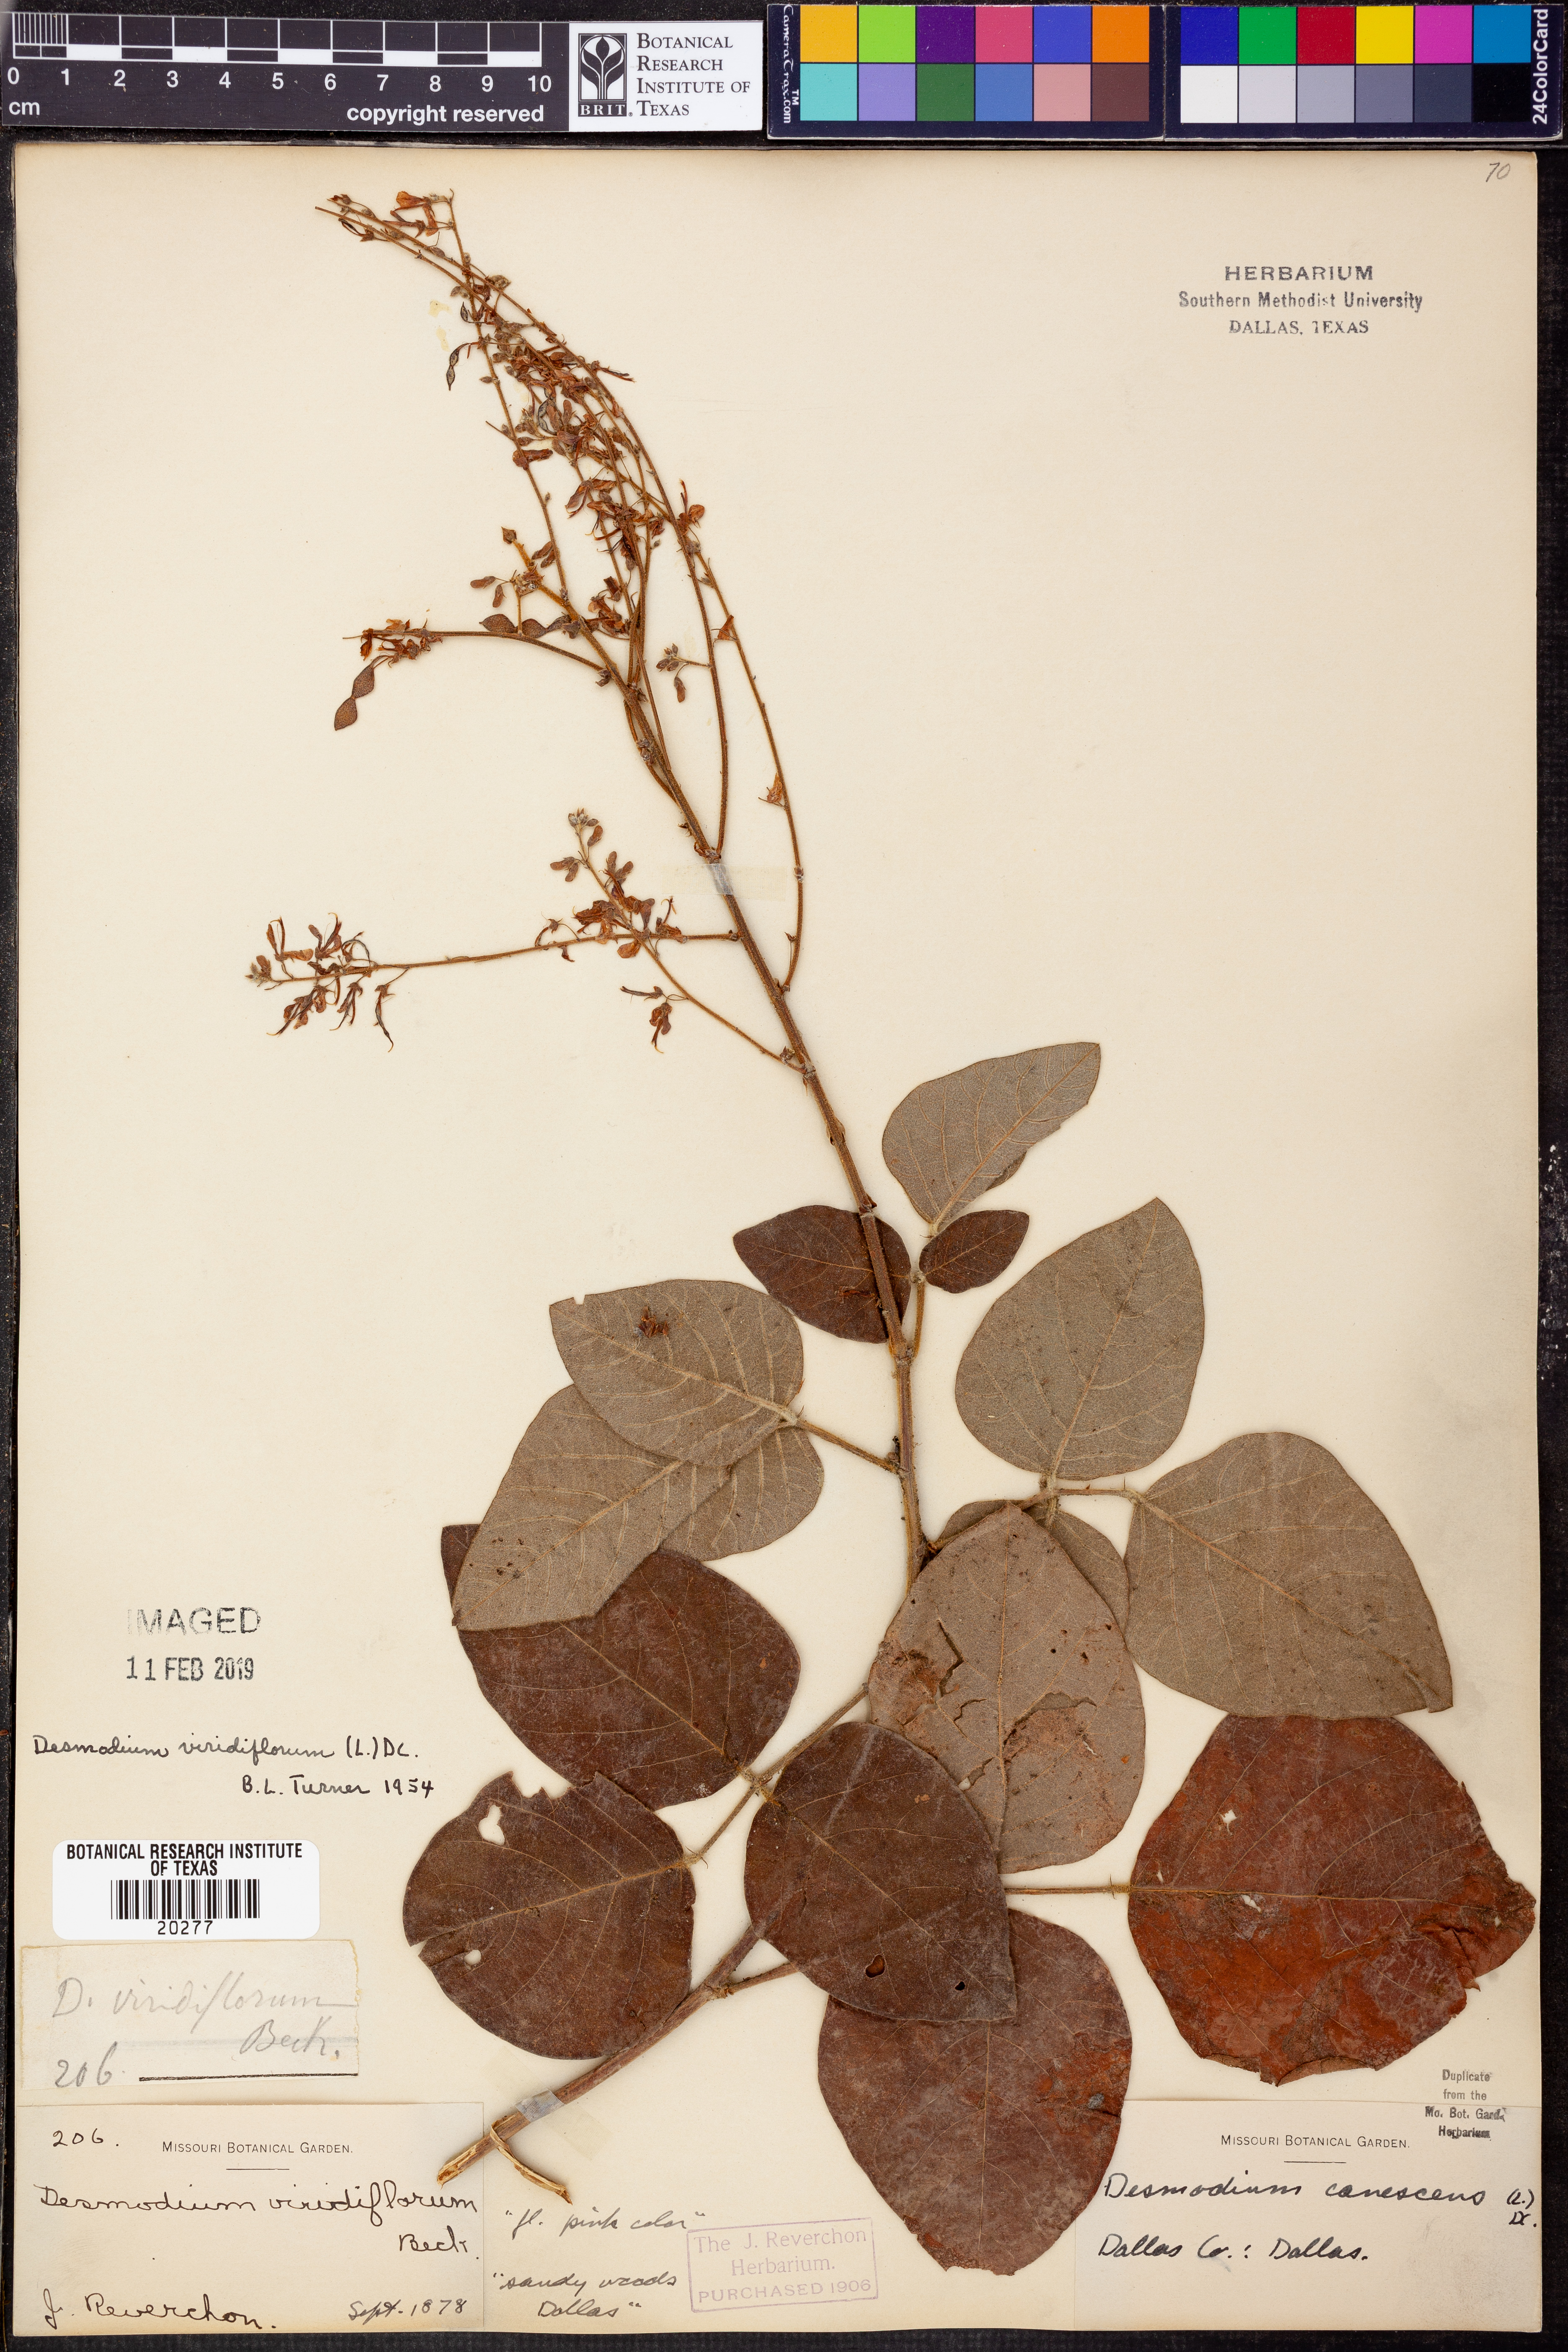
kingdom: Plantae
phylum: Tracheophyta
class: Magnoliopsida
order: Fabales
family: Fabaceae
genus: Desmodium
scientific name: Desmodium viridiflorum
